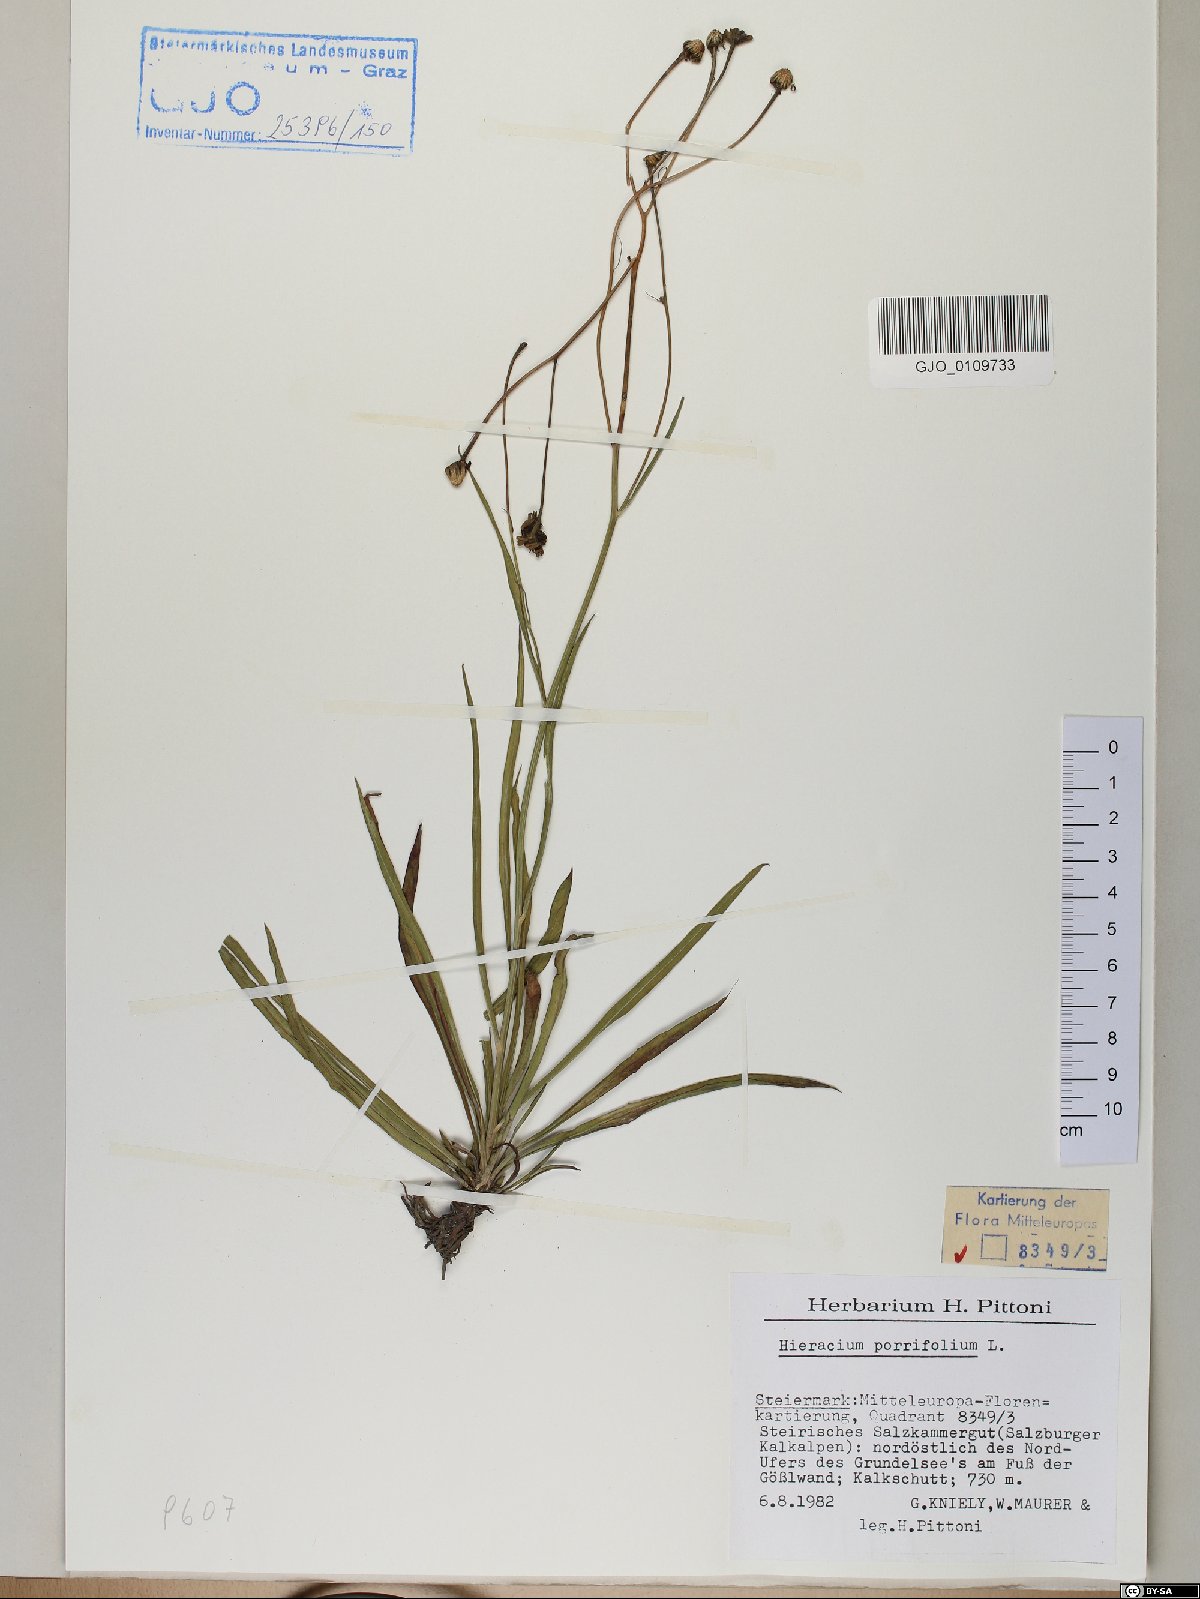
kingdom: Plantae
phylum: Tracheophyta
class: Magnoliopsida
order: Asterales
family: Asteraceae
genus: Hieracium
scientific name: Hieracium porrifolium
